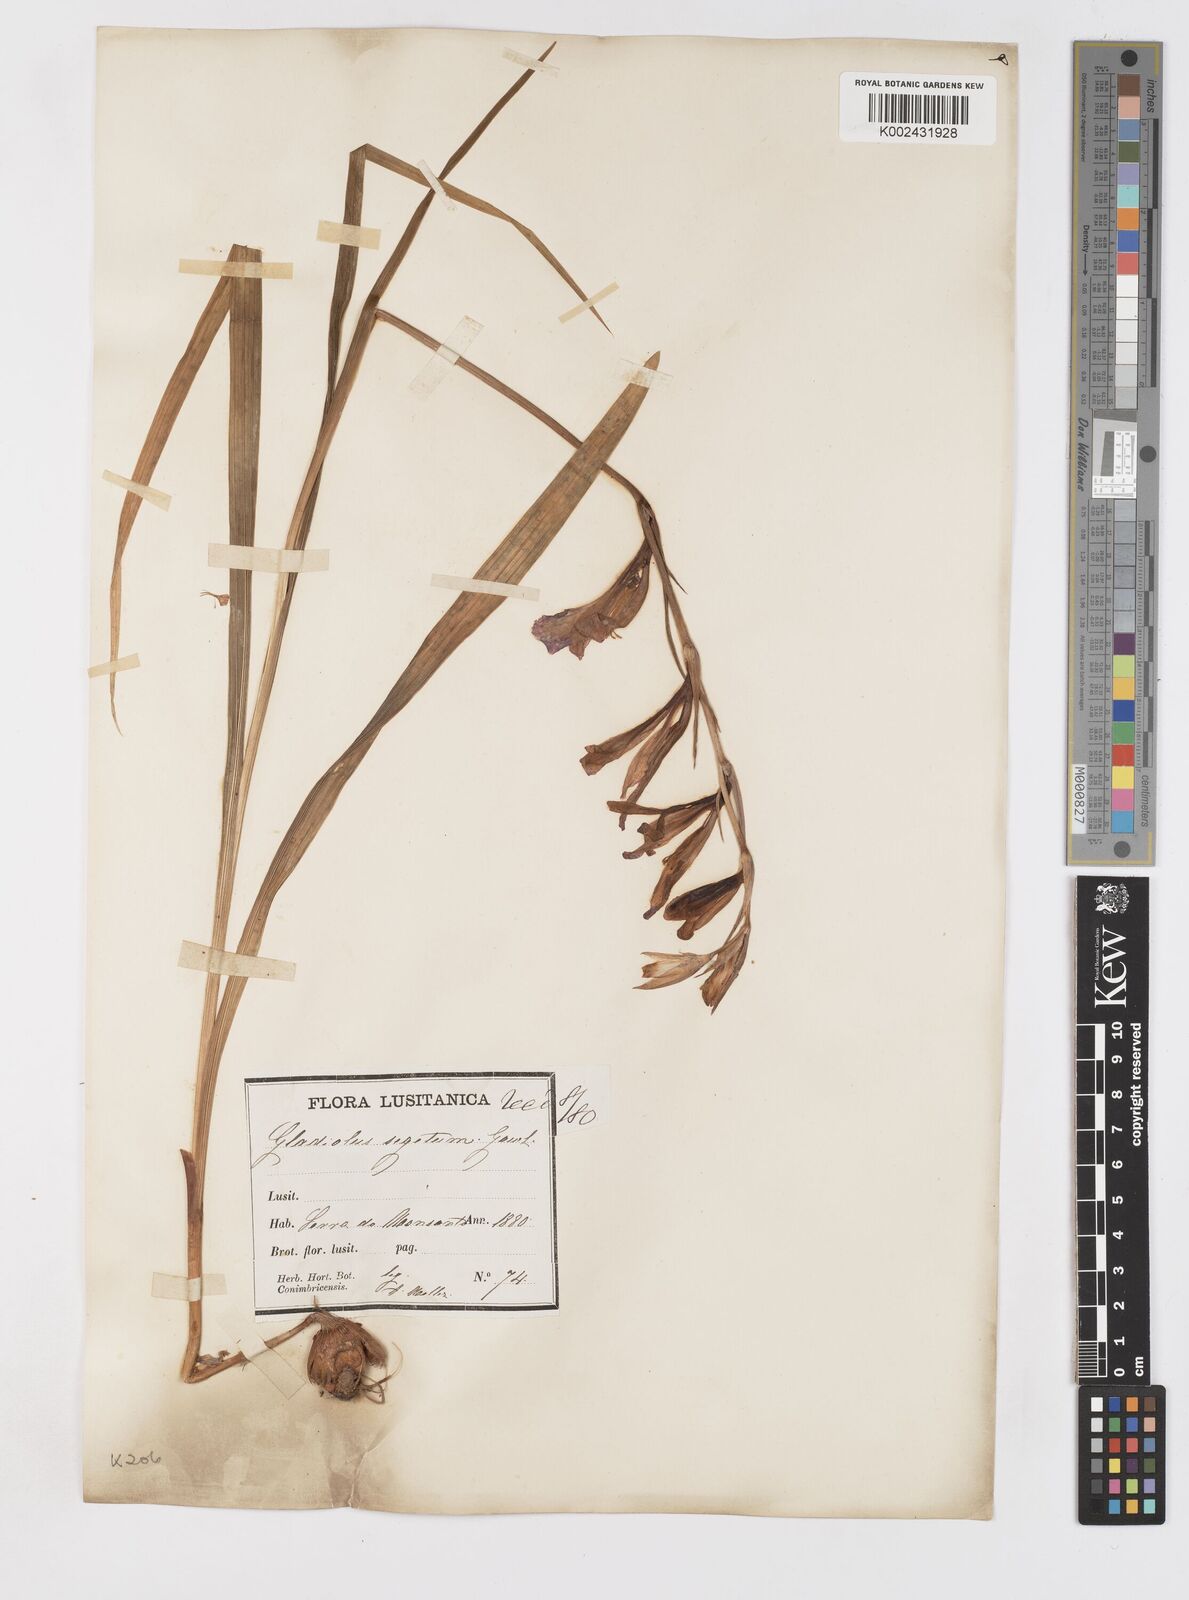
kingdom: Plantae
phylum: Tracheophyta
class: Liliopsida
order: Asparagales
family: Iridaceae
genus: Gladiolus
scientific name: Gladiolus italicus
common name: Field gladiolus
